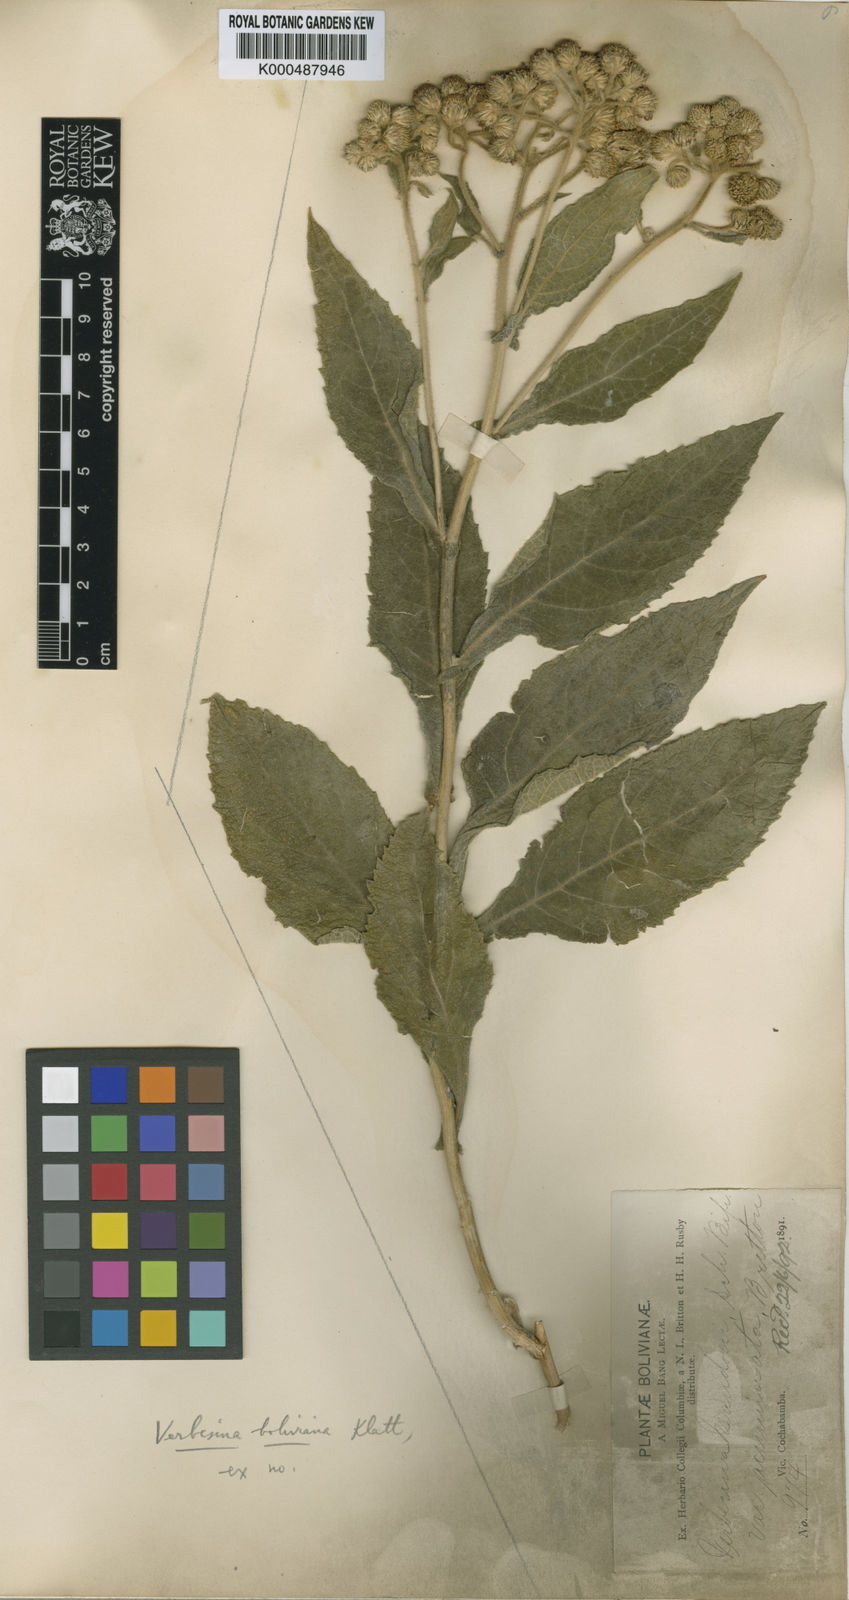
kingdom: Plantae
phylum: Tracheophyta
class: Magnoliopsida
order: Asterales
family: Asteraceae
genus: Verbesina
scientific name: Verbesina
